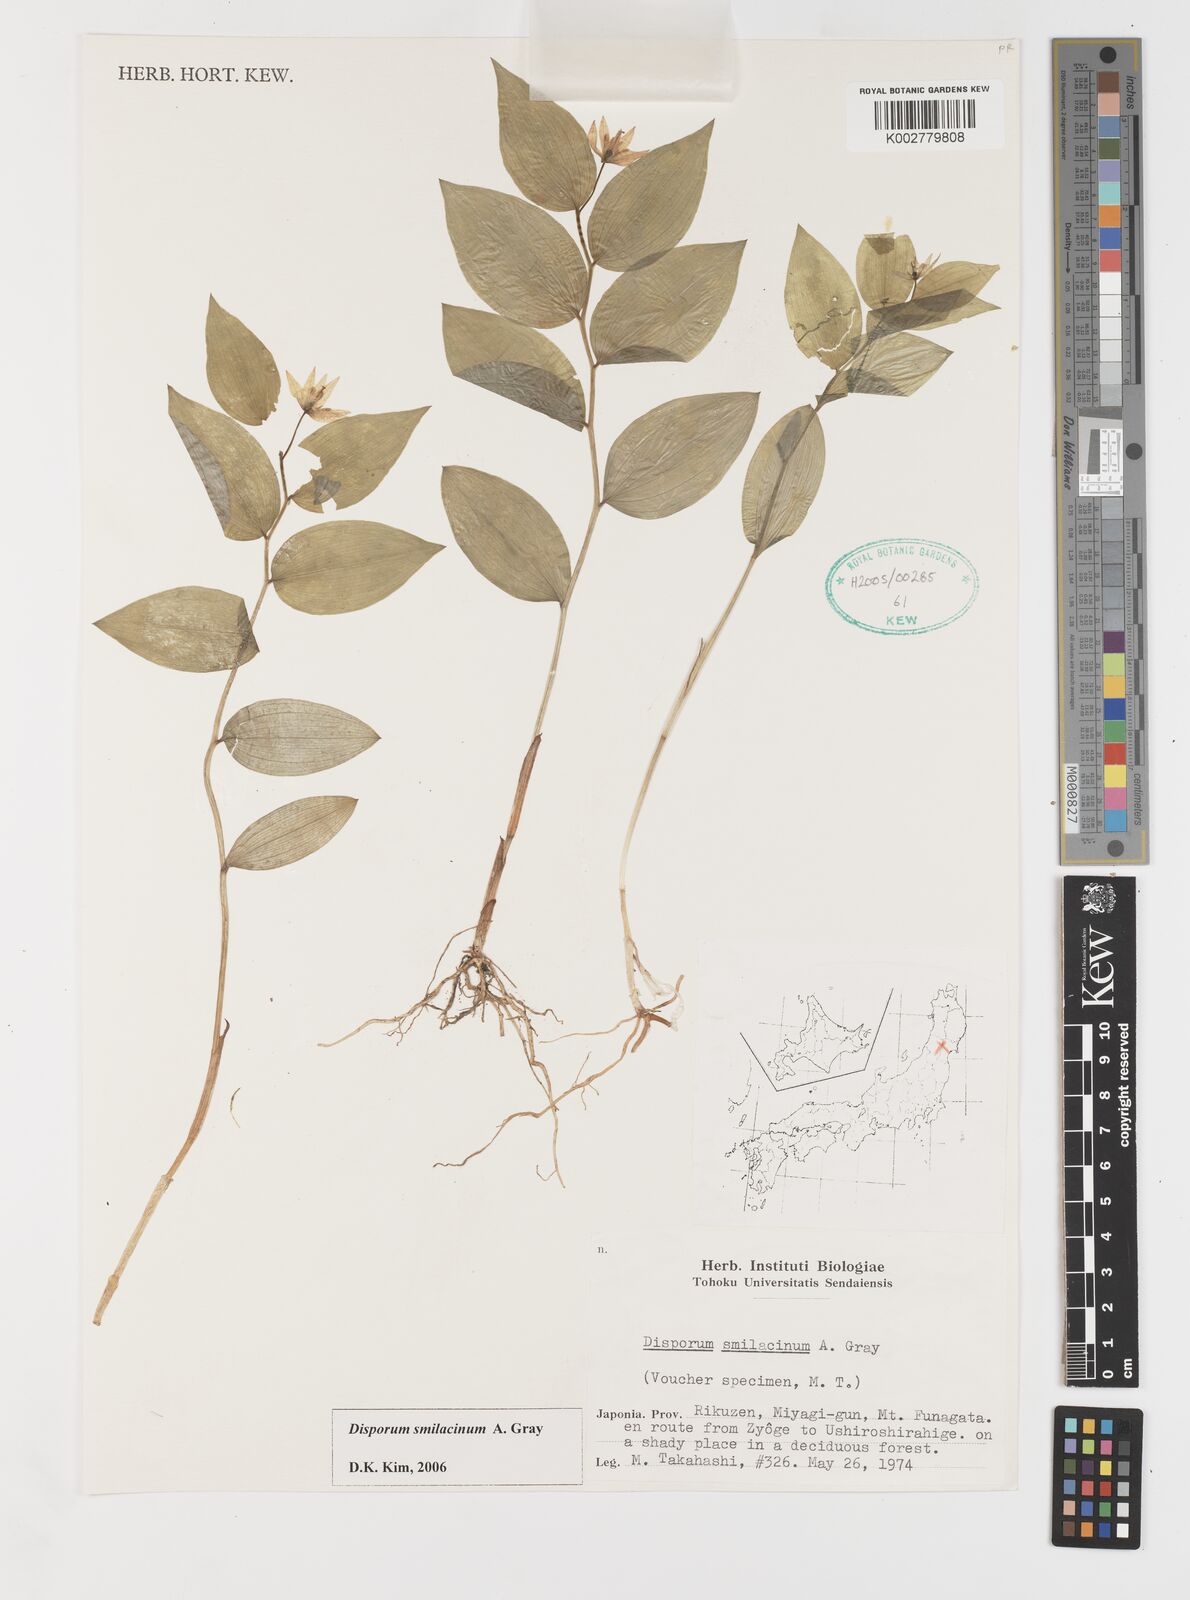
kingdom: Plantae
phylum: Tracheophyta
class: Liliopsida
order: Liliales
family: Colchicaceae
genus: Disporum
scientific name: Disporum smilacinum
